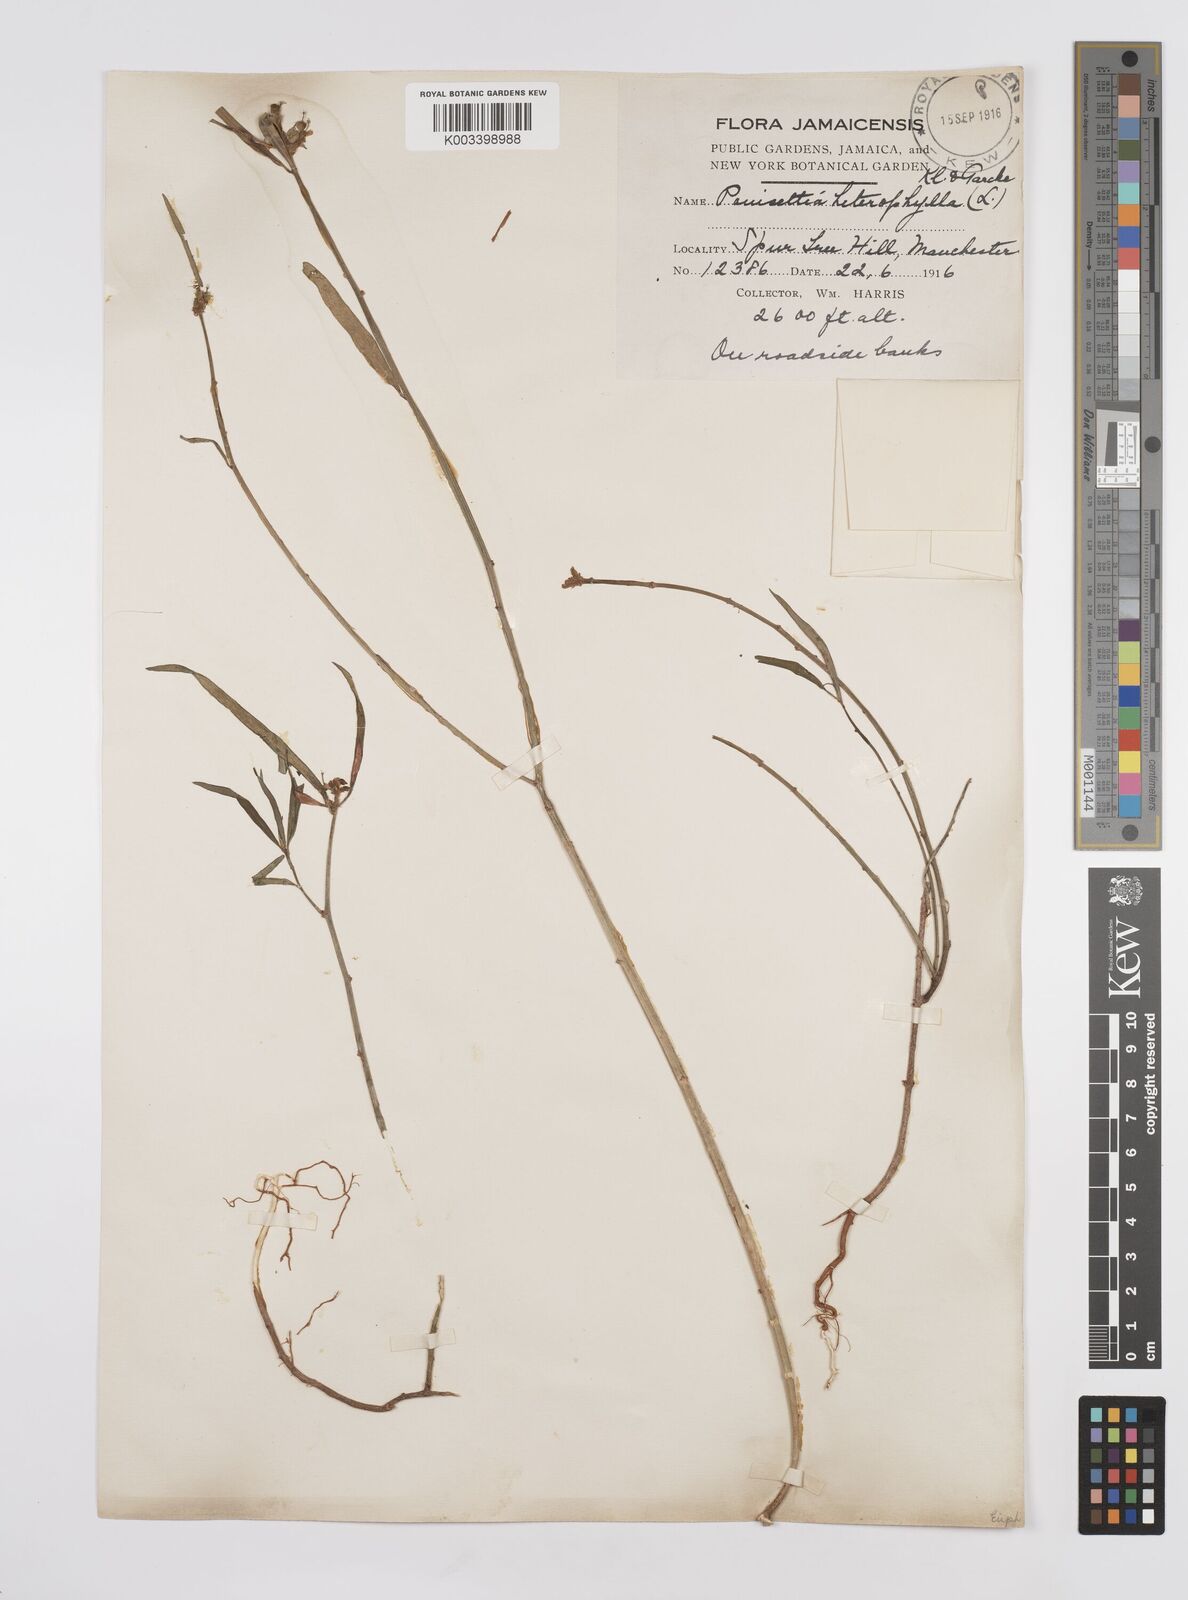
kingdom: Plantae
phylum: Tracheophyta
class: Magnoliopsida
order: Malpighiales
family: Euphorbiaceae
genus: Euphorbia
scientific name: Euphorbia heterophylla
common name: Mexican fireplant
